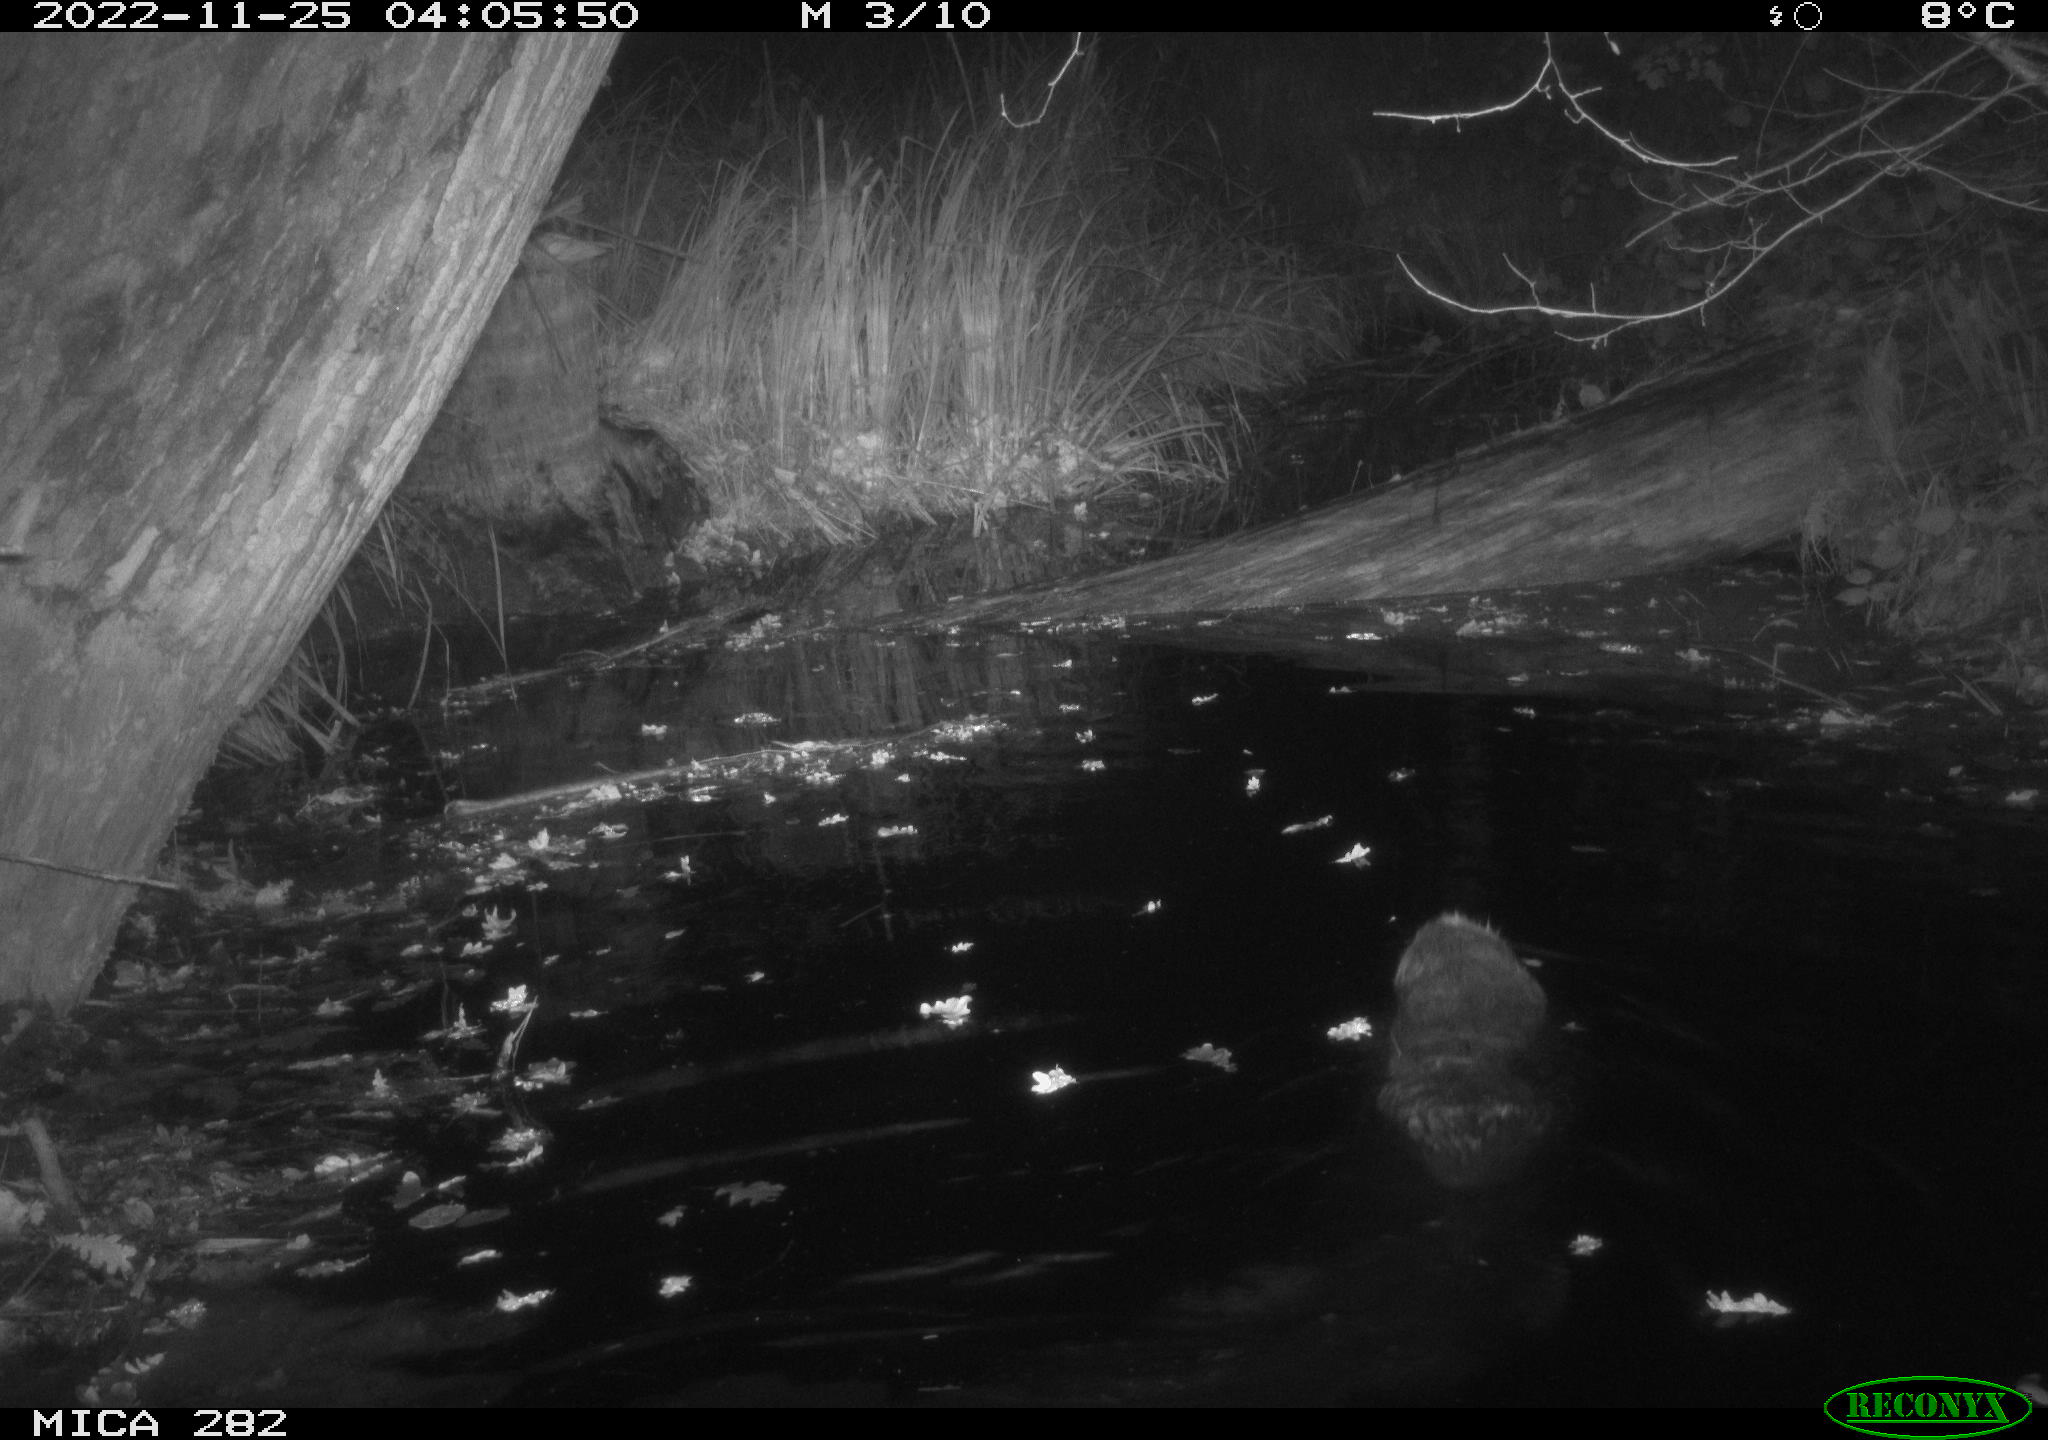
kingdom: Animalia
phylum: Chordata
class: Mammalia
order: Rodentia
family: Castoridae
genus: Castor
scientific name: Castor fiber
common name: Eurasian beaver
